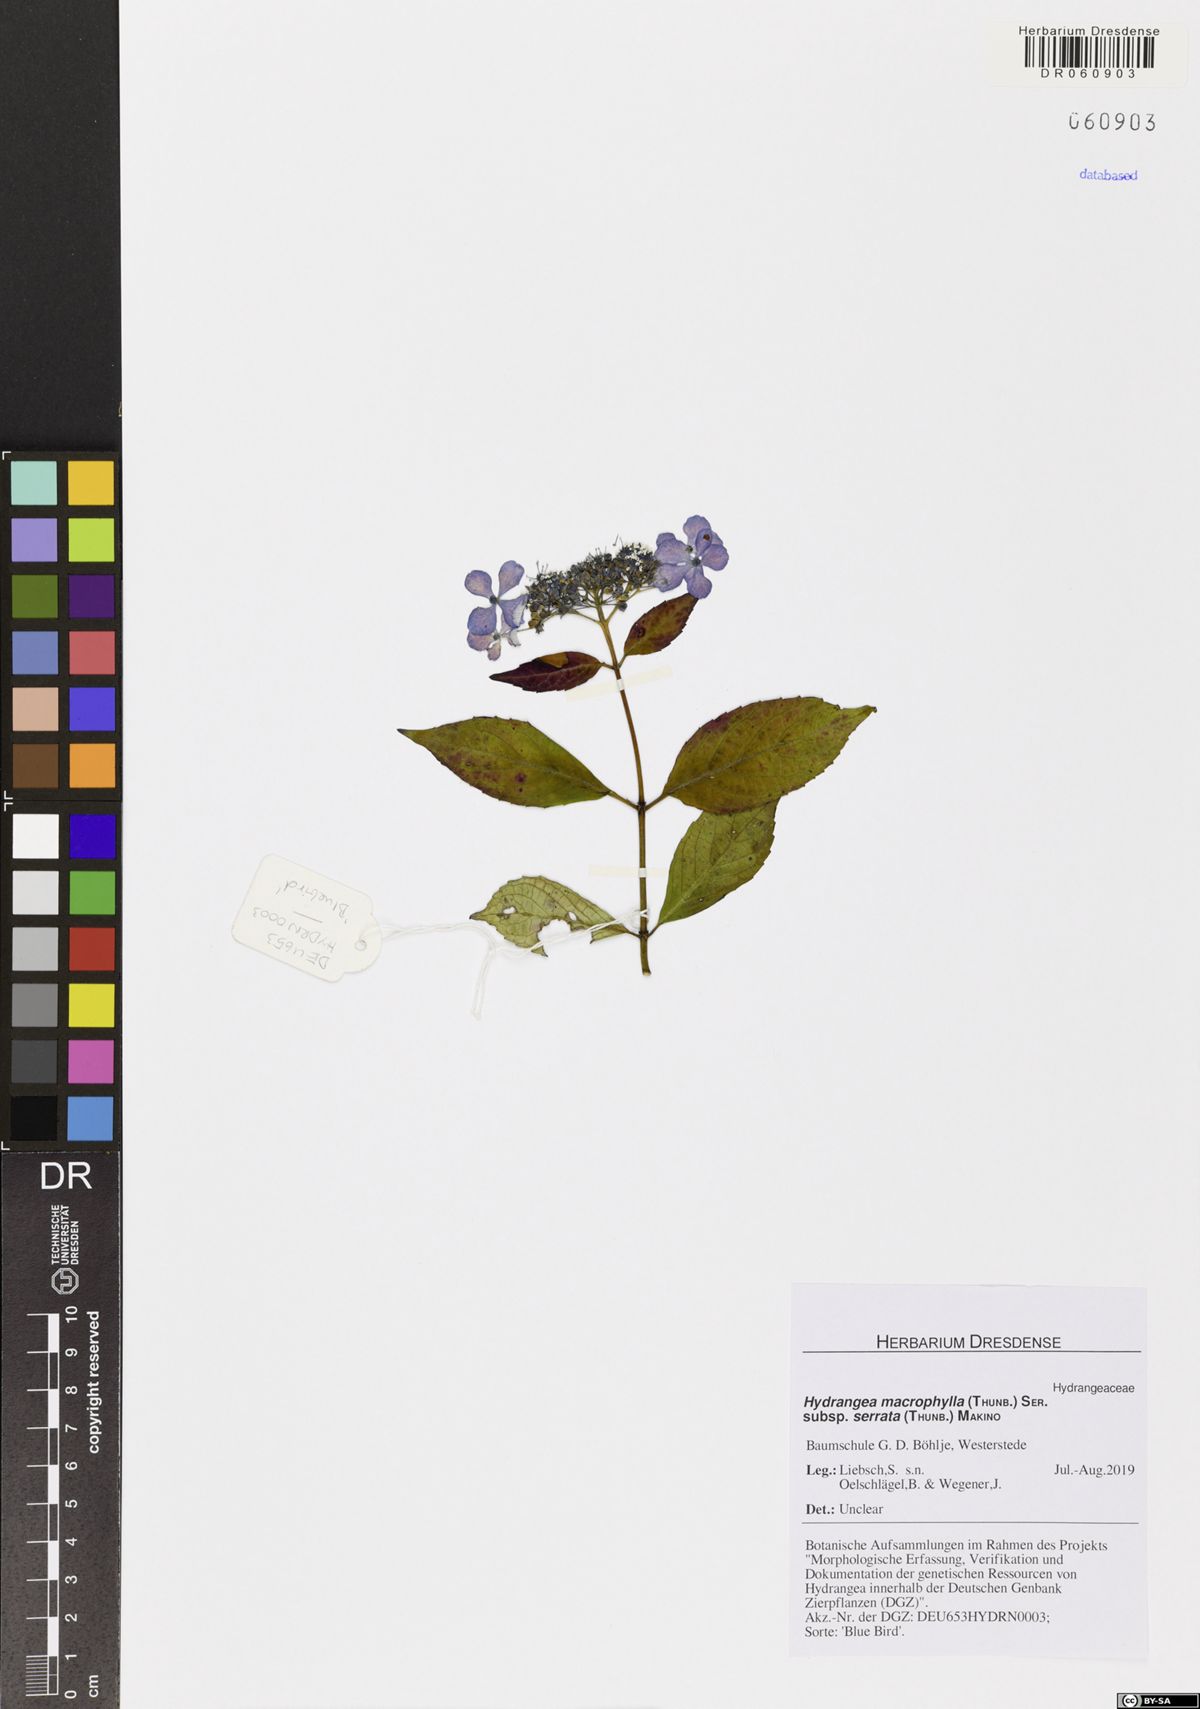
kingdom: Plantae
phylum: Tracheophyta
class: Magnoliopsida
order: Cornales
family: Hydrangeaceae
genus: Hydrangea
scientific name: Hydrangea serrata
